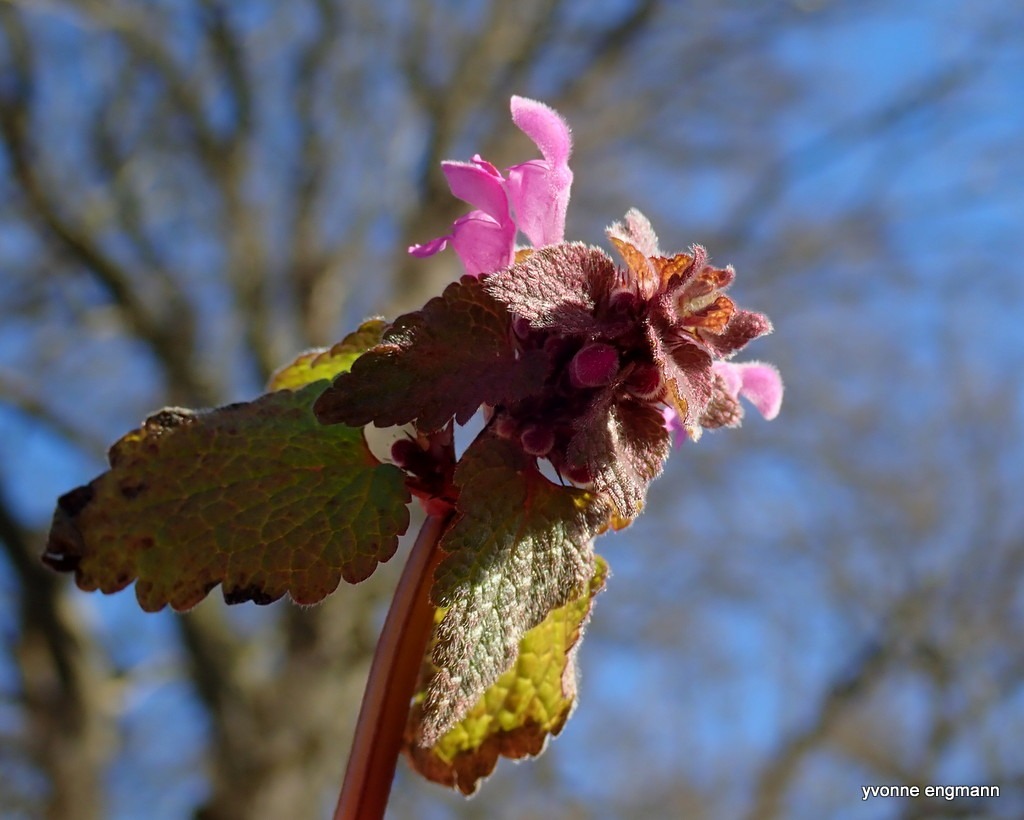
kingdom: Plantae
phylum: Tracheophyta
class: Magnoliopsida
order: Lamiales
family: Lamiaceae
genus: Lamium
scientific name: Lamium purpureum
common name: Rød tvetand
